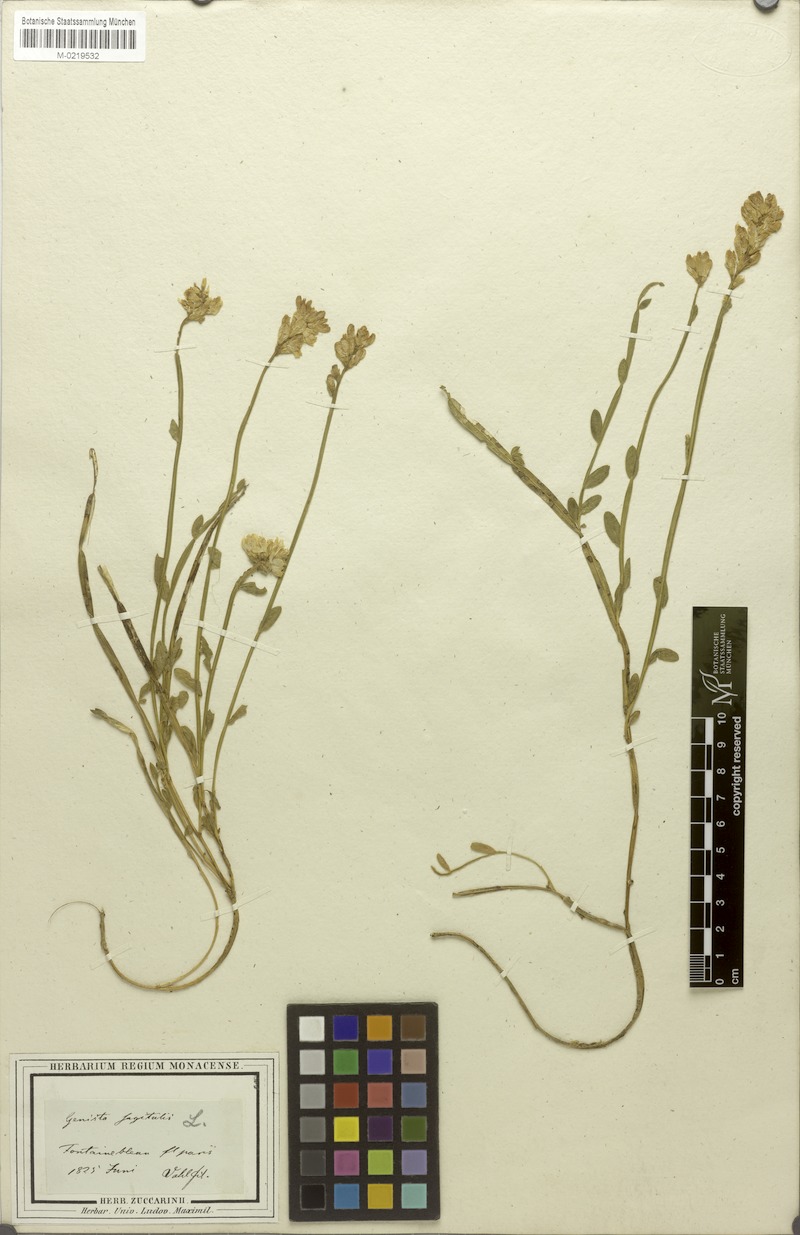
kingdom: Plantae
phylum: Tracheophyta
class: Magnoliopsida
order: Fabales
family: Fabaceae
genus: Genista
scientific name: Genista sagittalis
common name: Winged greenweed
